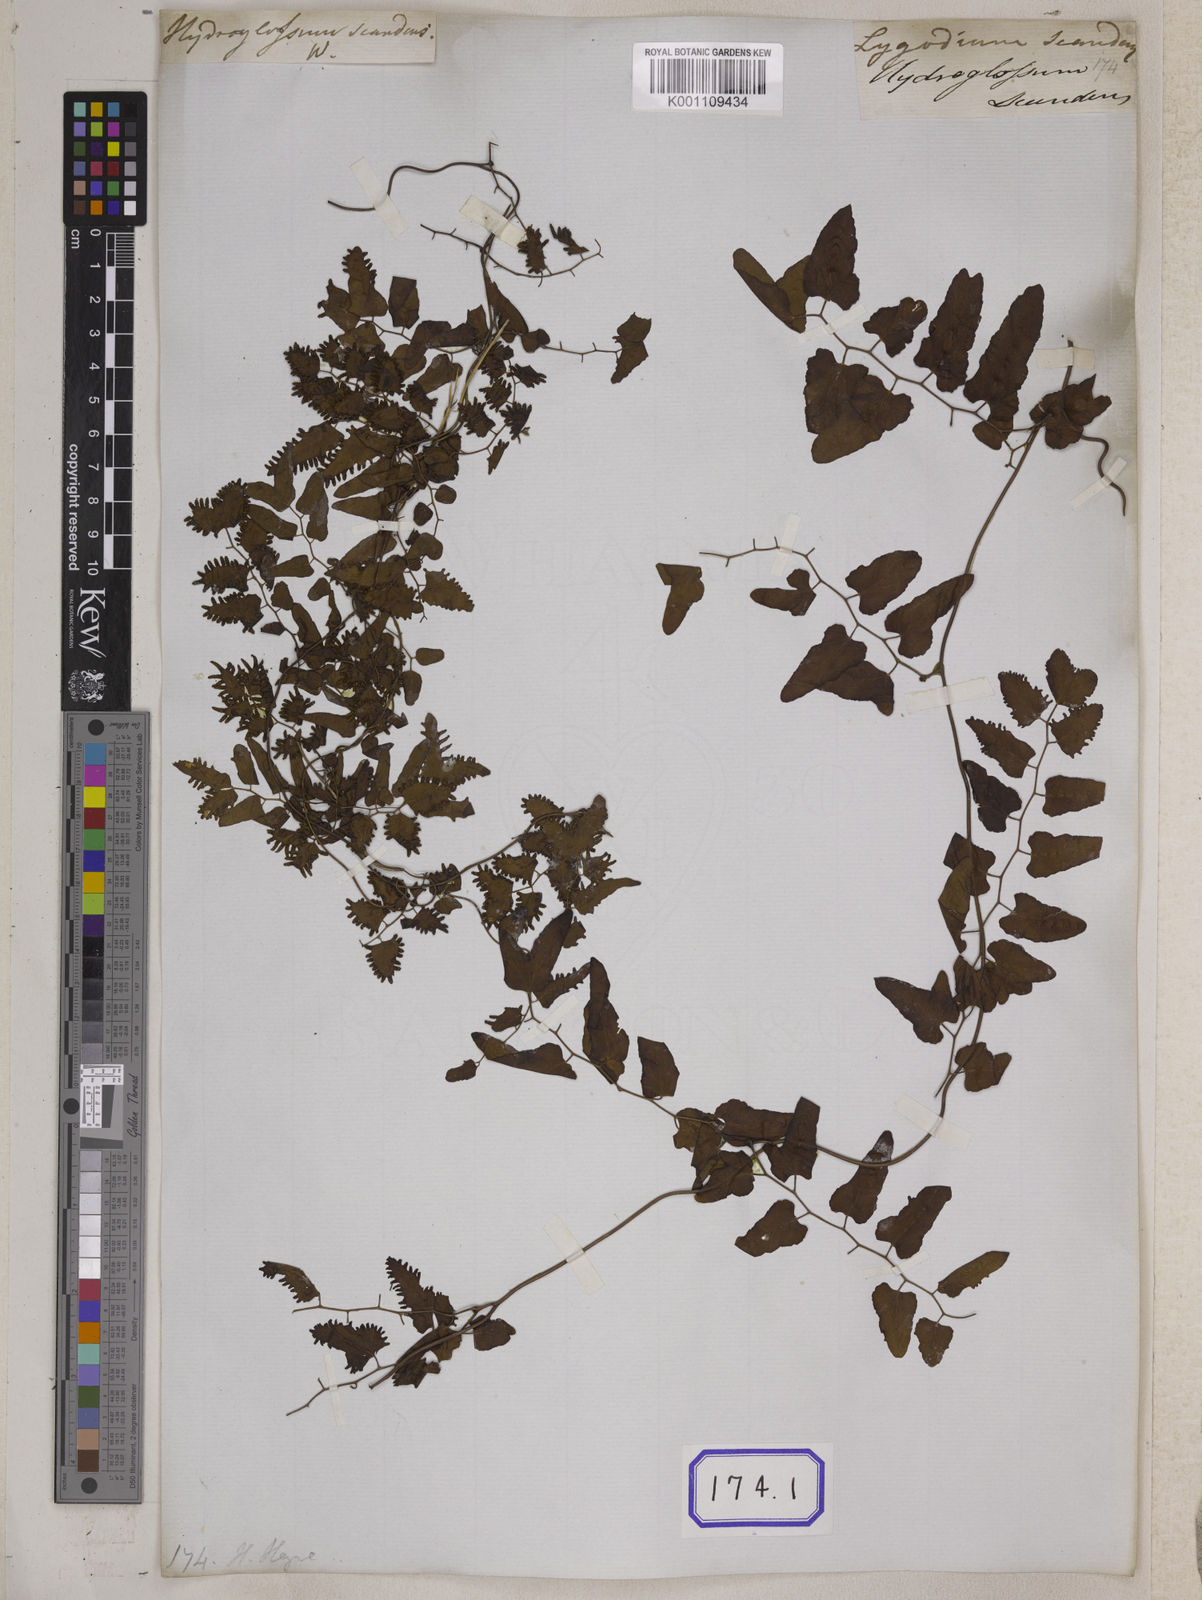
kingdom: Plantae
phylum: Tracheophyta
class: Polypodiopsida
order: Schizaeales
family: Lygodiaceae
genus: Lygodium
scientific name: Lygodium
